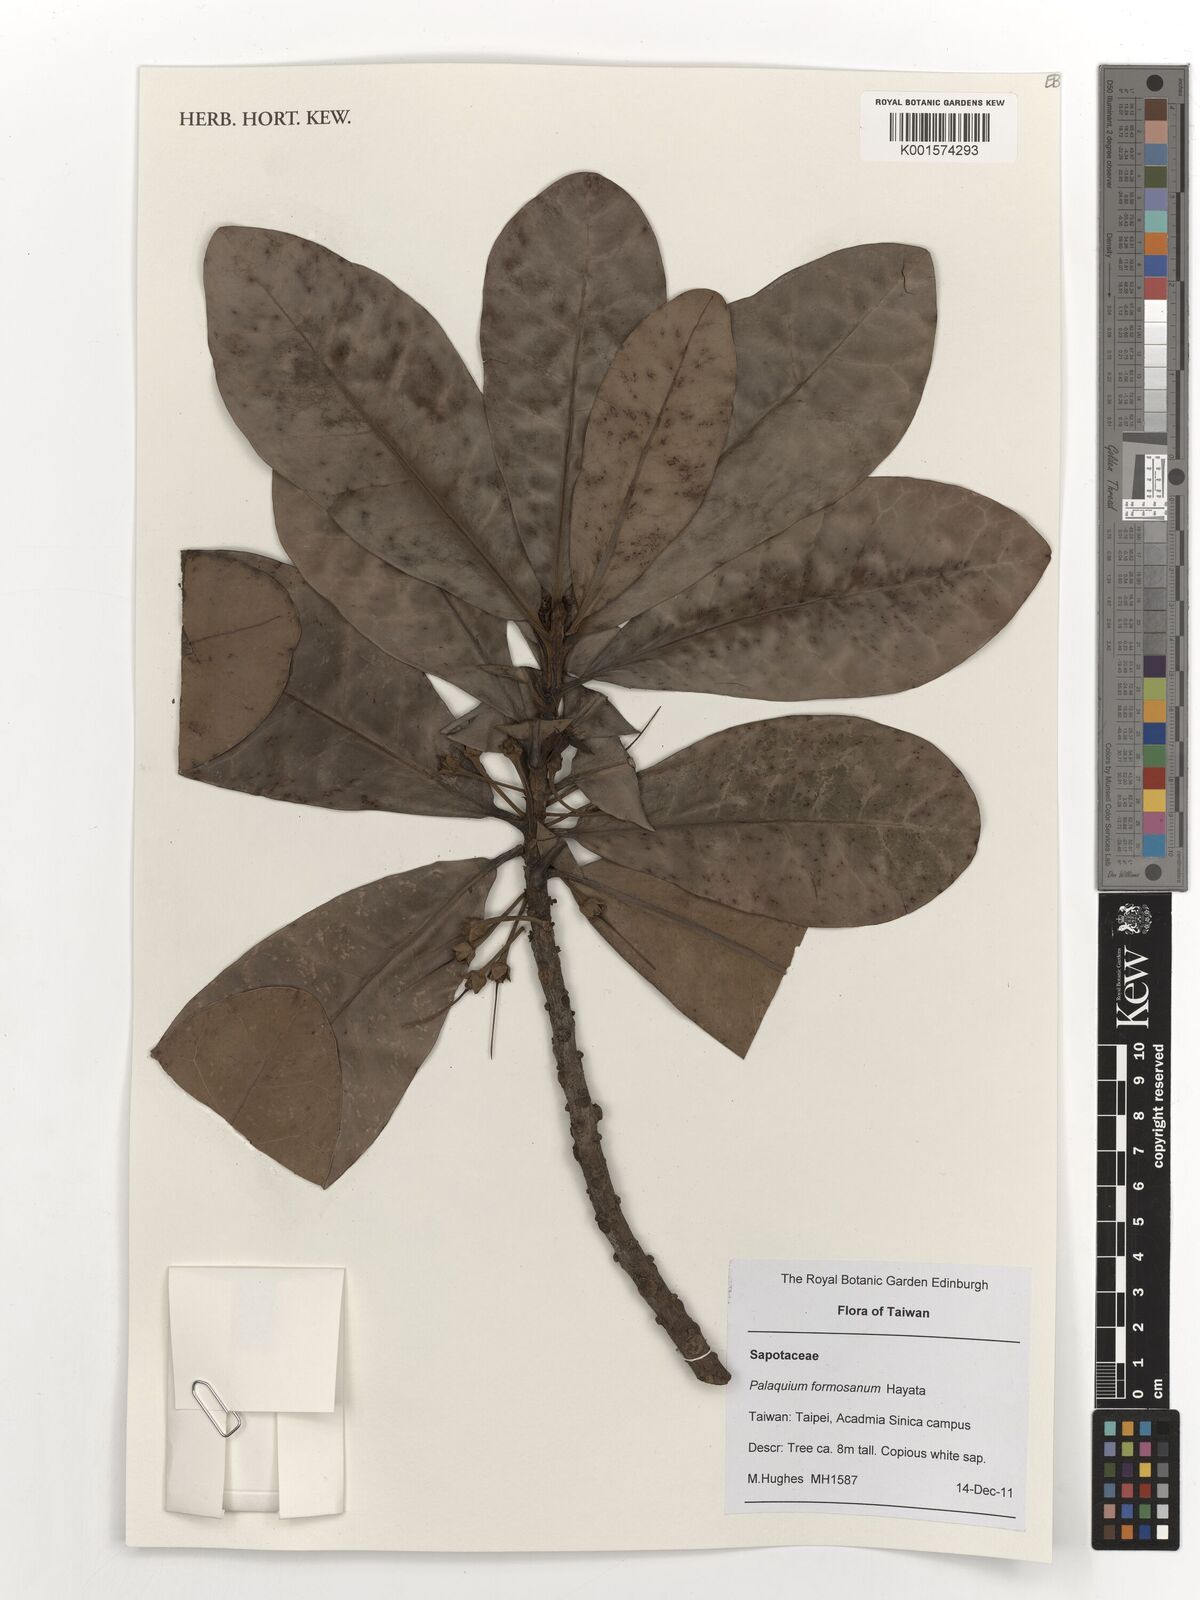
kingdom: Plantae
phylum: Tracheophyta
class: Magnoliopsida
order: Ericales
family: Sapotaceae
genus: Palaquium
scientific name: Palaquium formosanum
